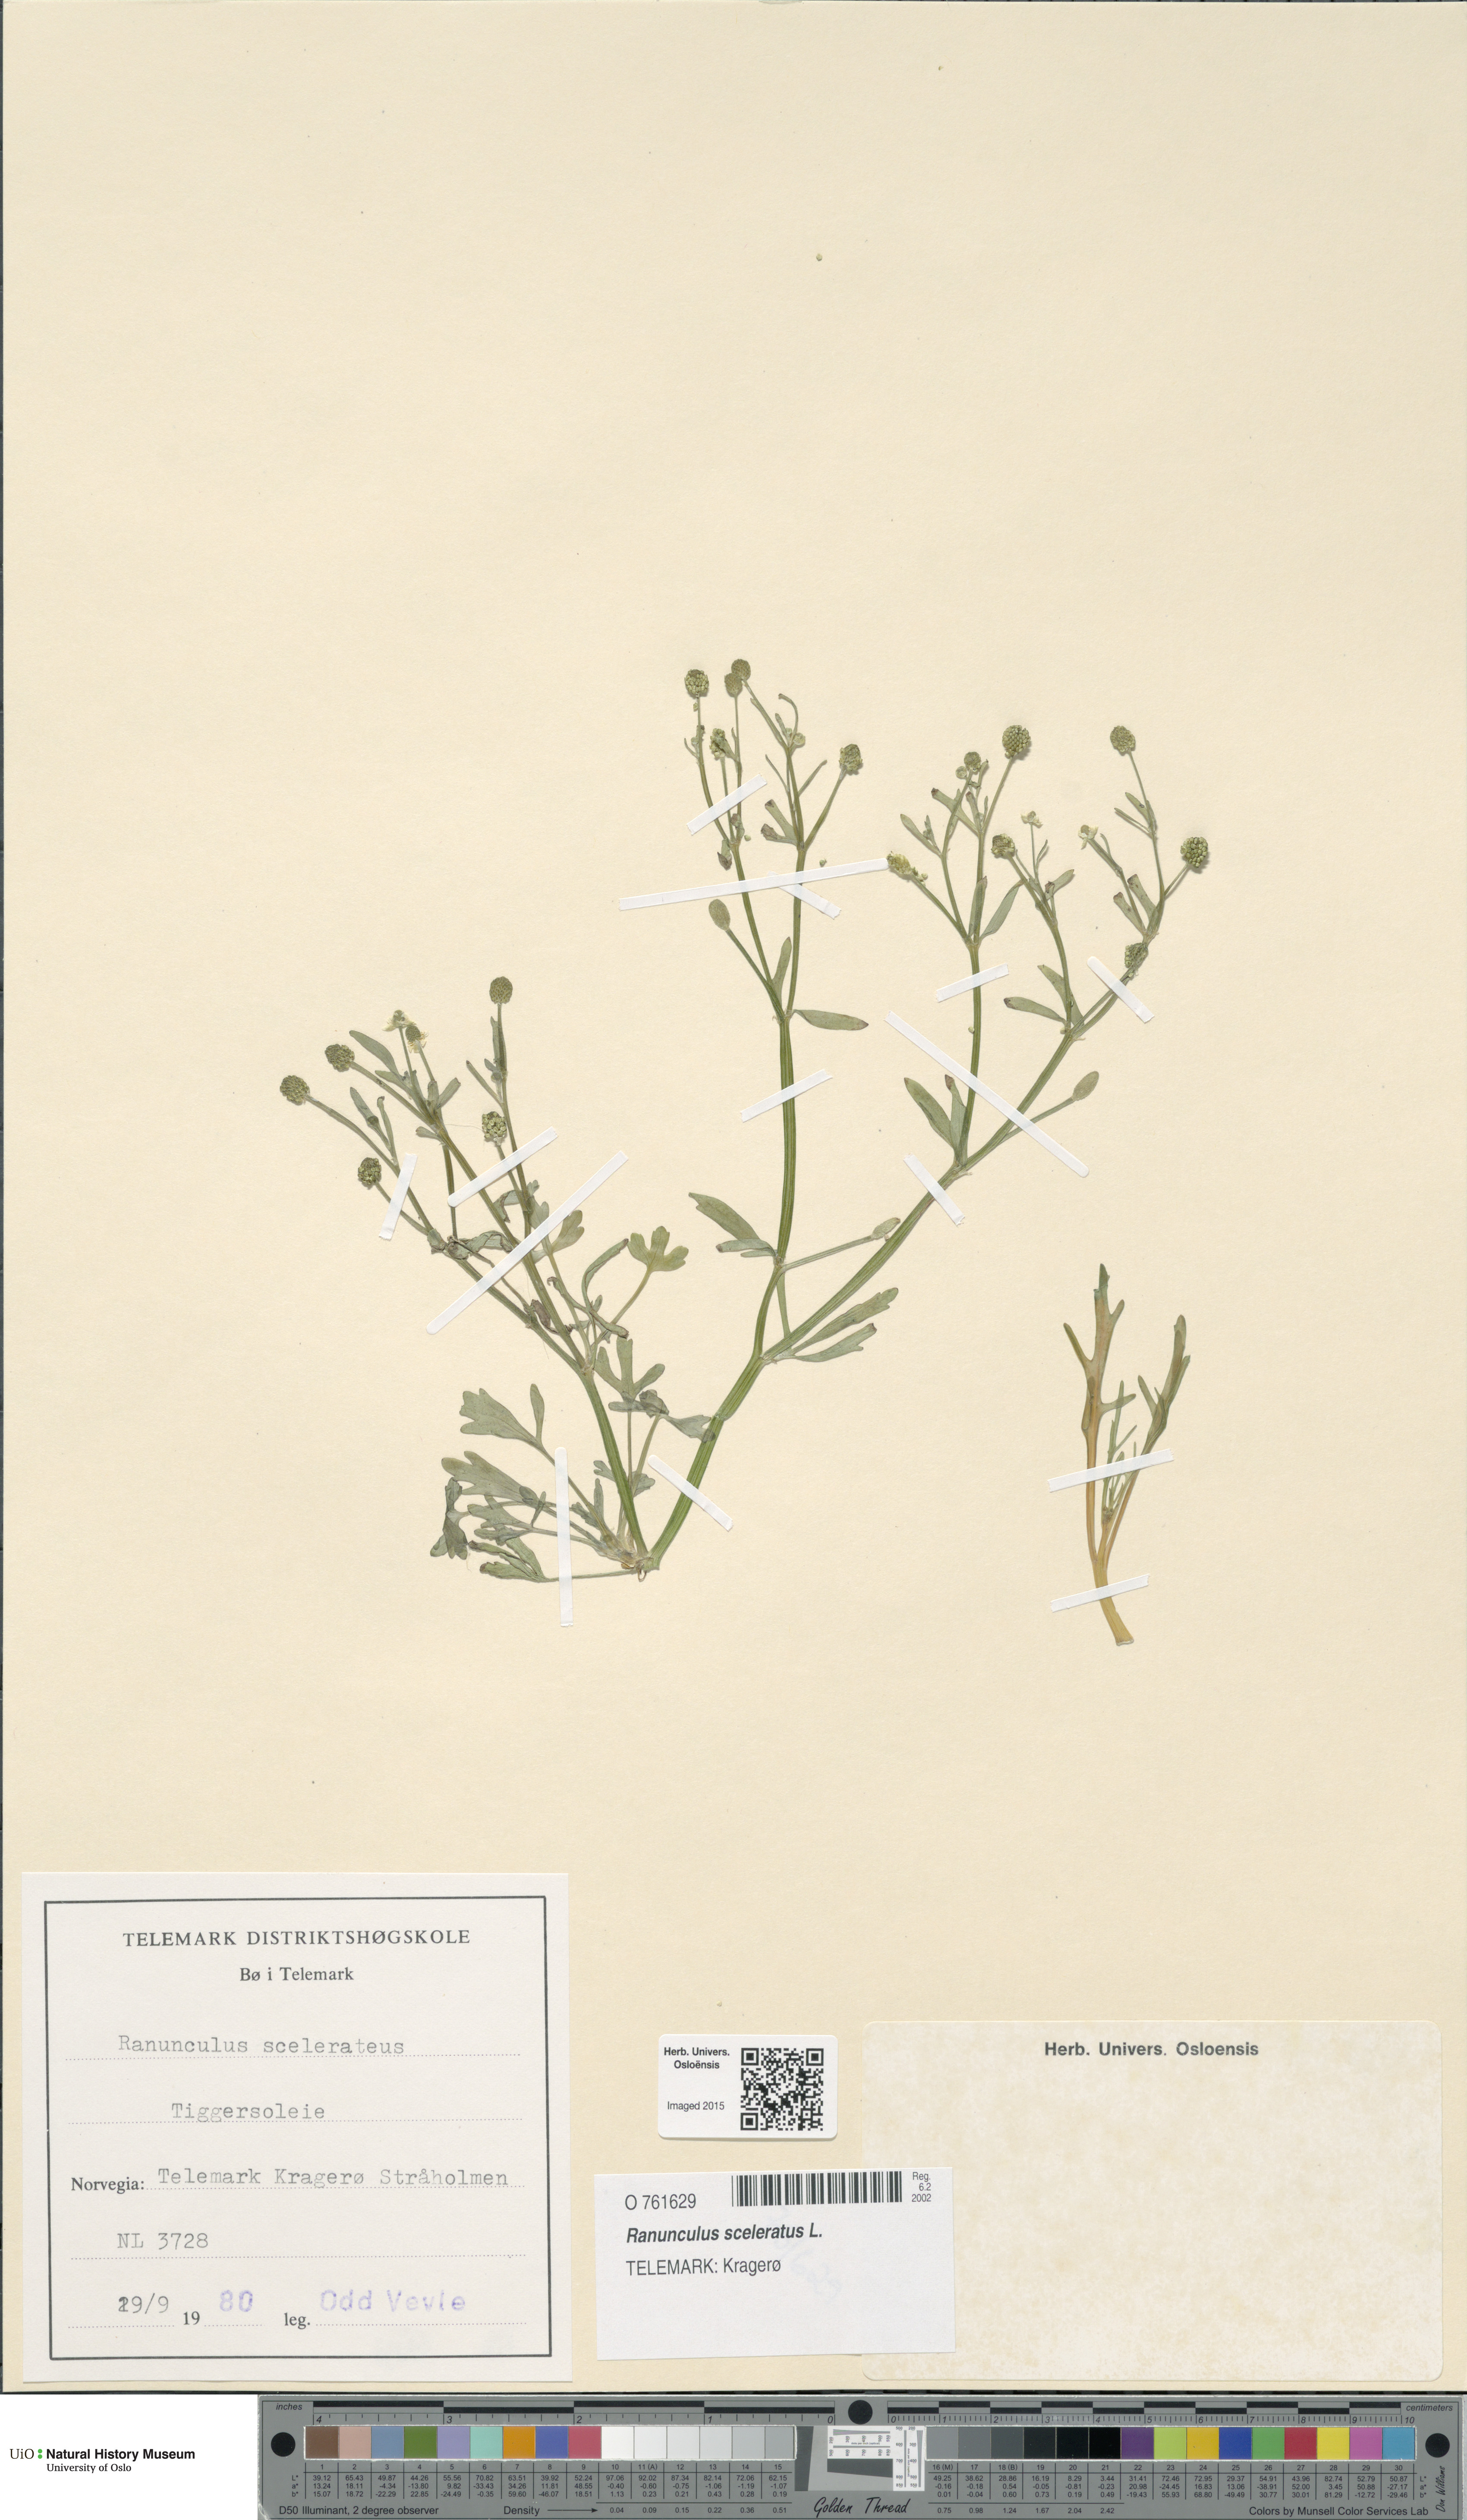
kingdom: Plantae
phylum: Tracheophyta
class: Magnoliopsida
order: Ranunculales
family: Ranunculaceae
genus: Ranunculus
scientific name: Ranunculus sceleratus
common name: Celery-leaved buttercup
